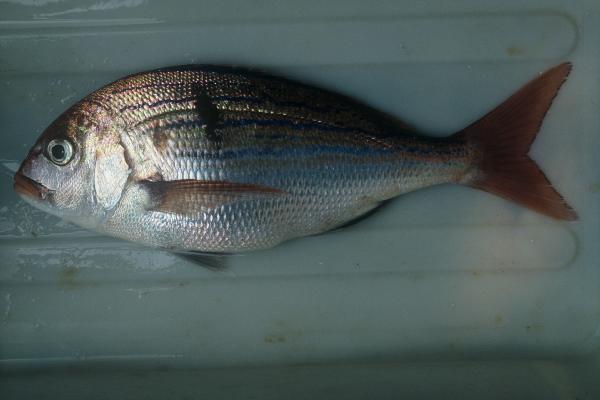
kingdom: Animalia
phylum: Chordata
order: Perciformes
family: Sparidae
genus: Polysteganus
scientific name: Polysteganus undulosus
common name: Seventy-four seabream
